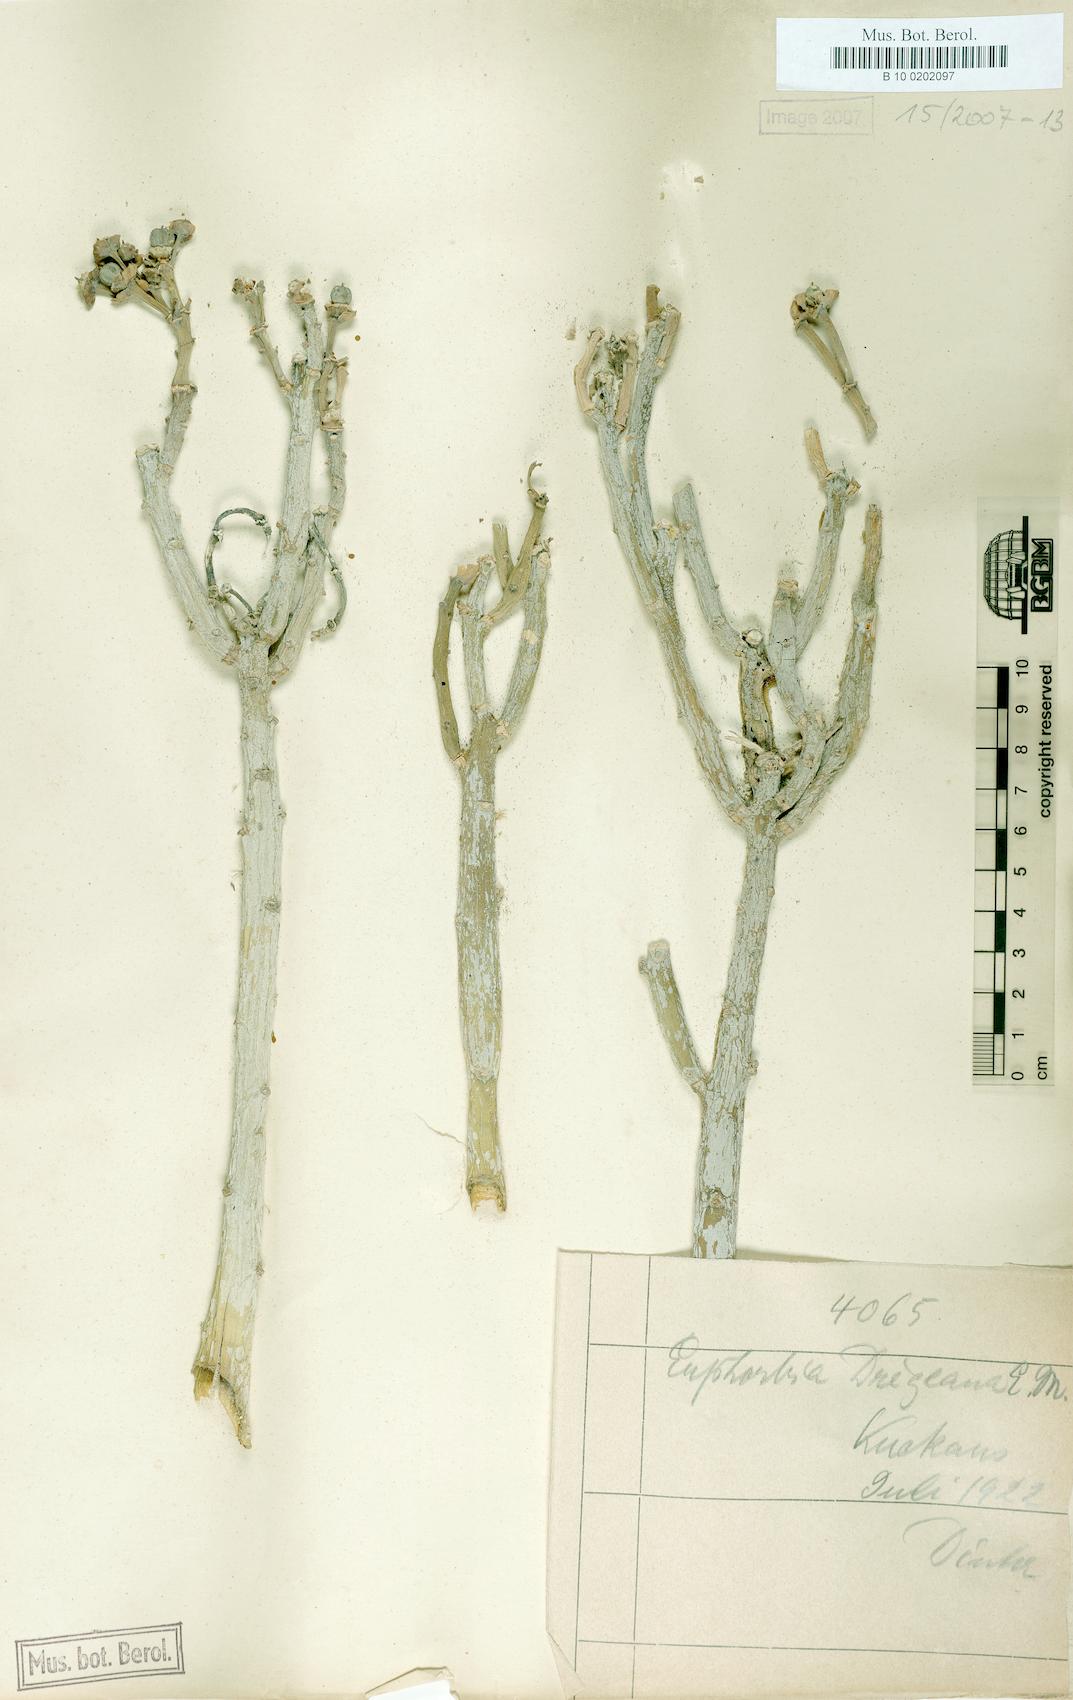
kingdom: Plantae
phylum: Tracheophyta
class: Magnoliopsida
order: Malpighiales
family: Euphorbiaceae
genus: Euphorbia
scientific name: Euphorbia dregeana
